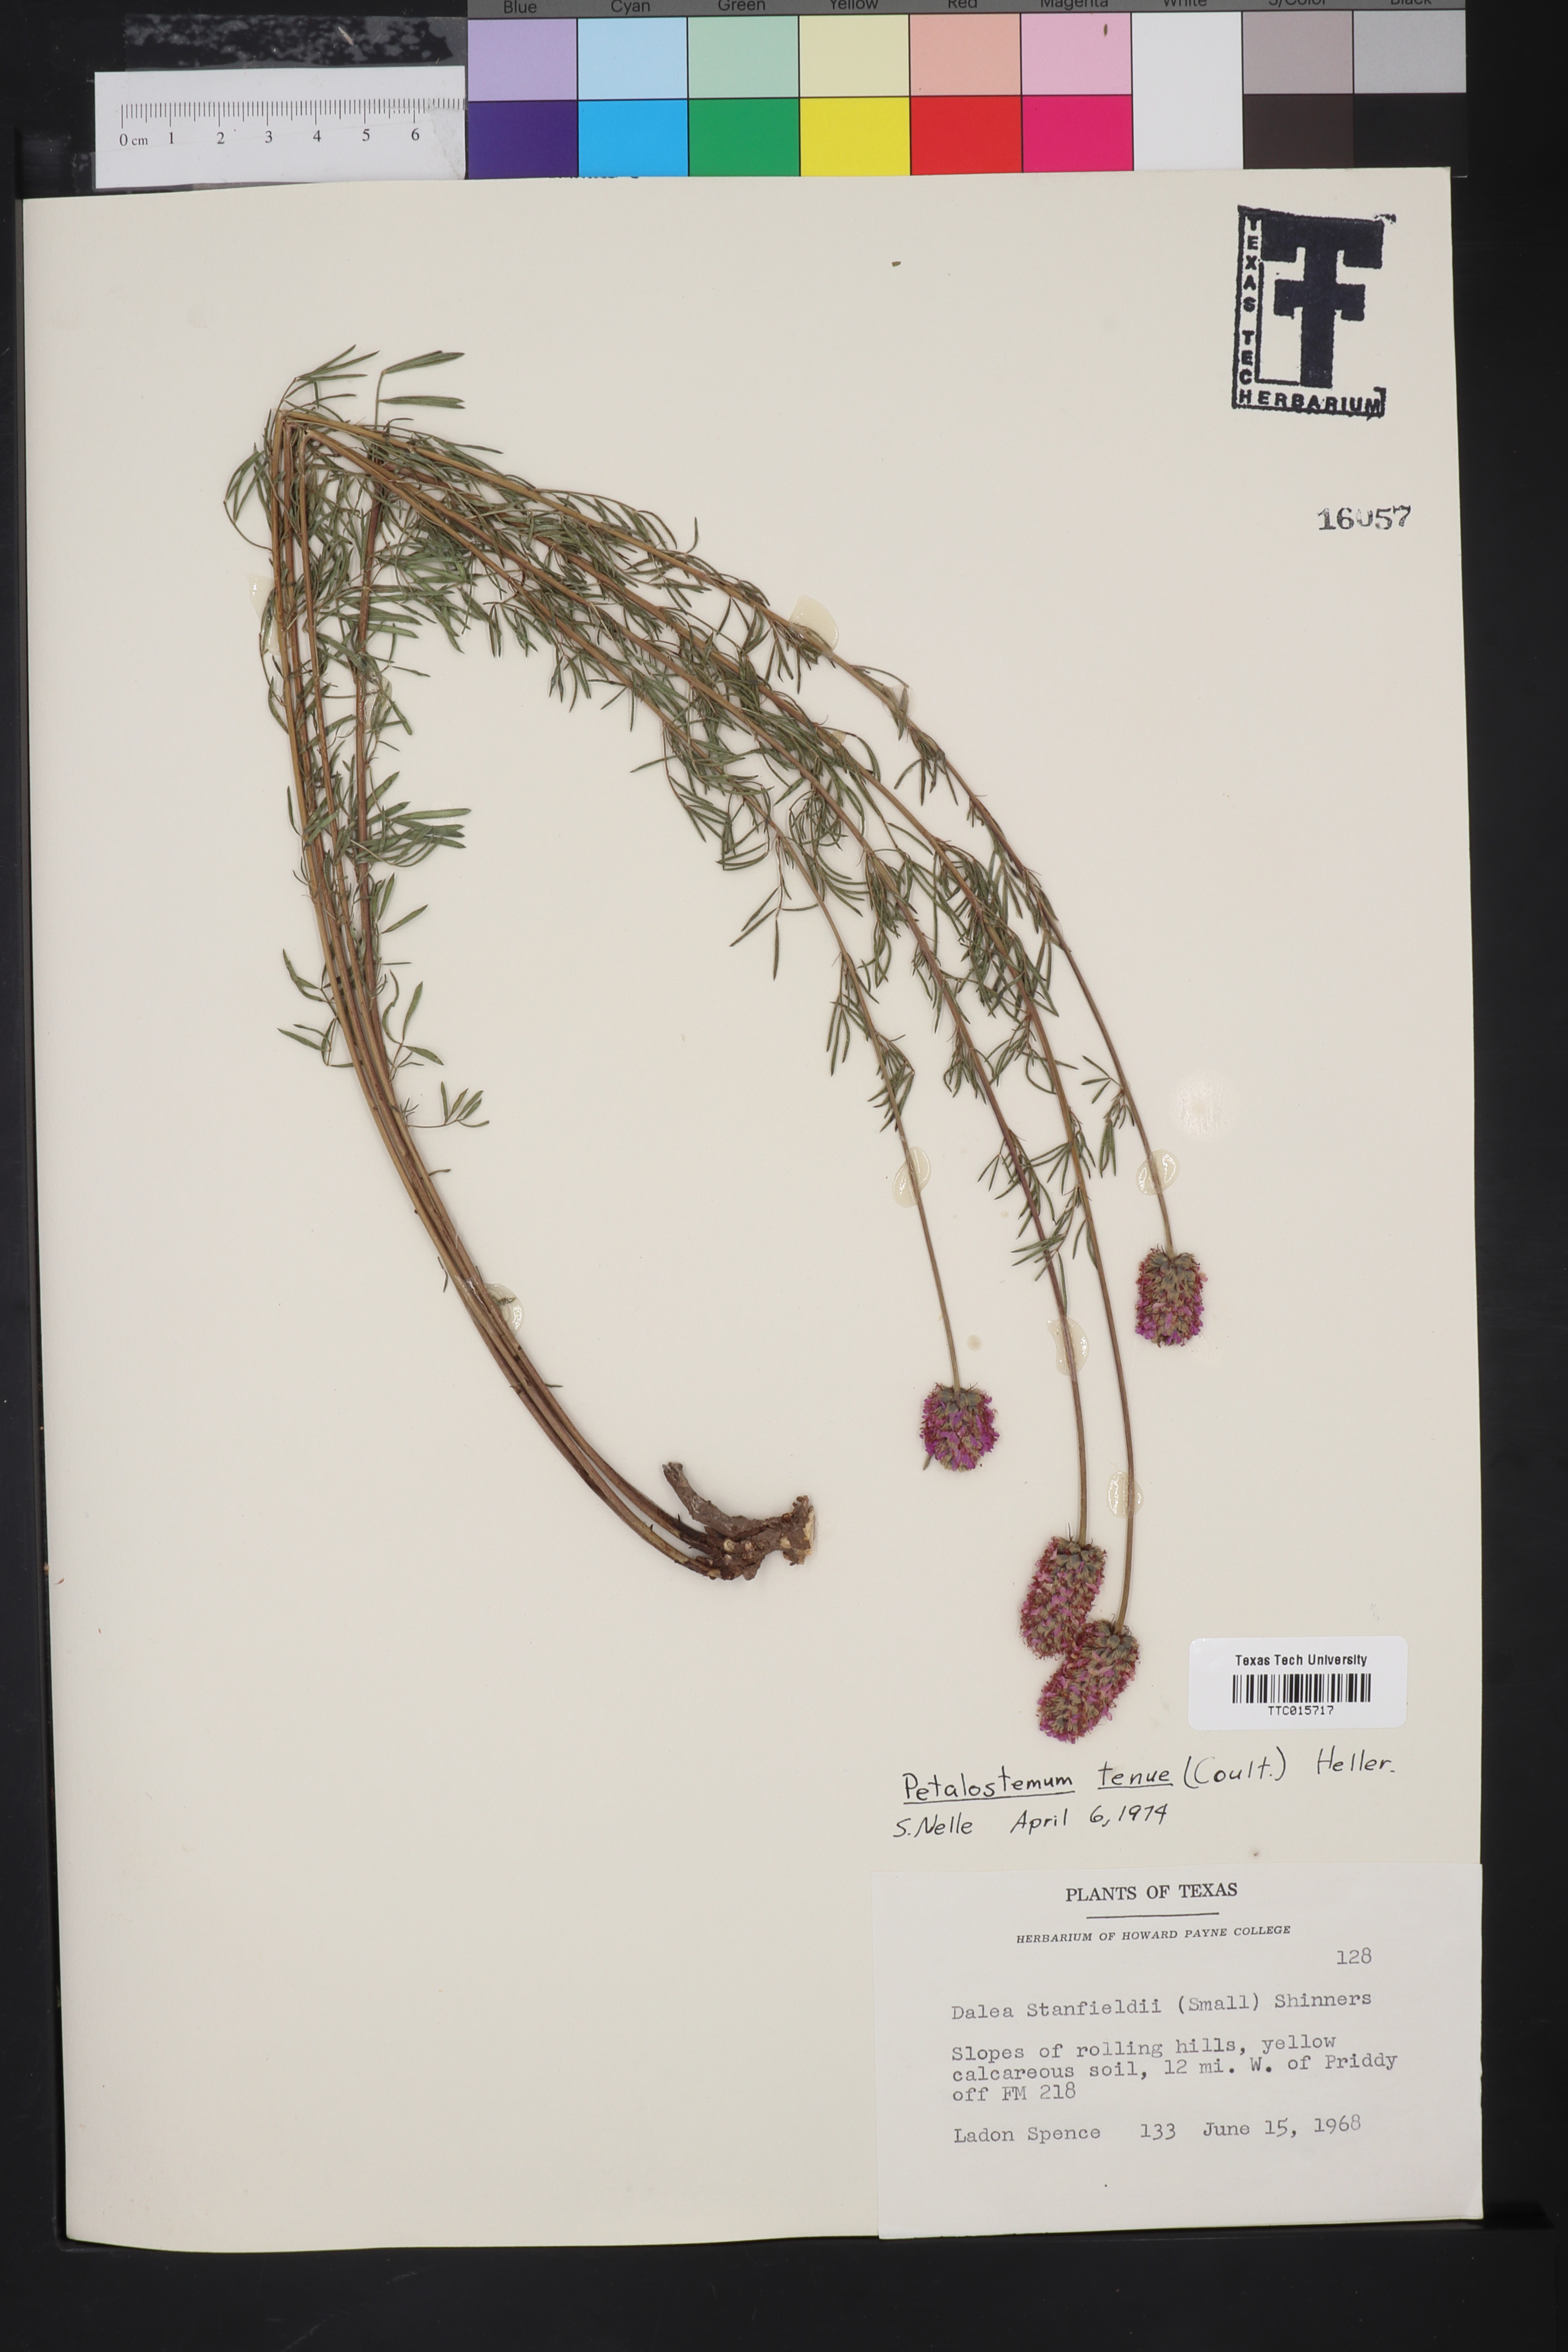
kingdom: Plantae
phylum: Tracheophyta
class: Magnoliopsida
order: Fabales
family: Fabaceae
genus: Petalostemum
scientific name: Petalostemum
